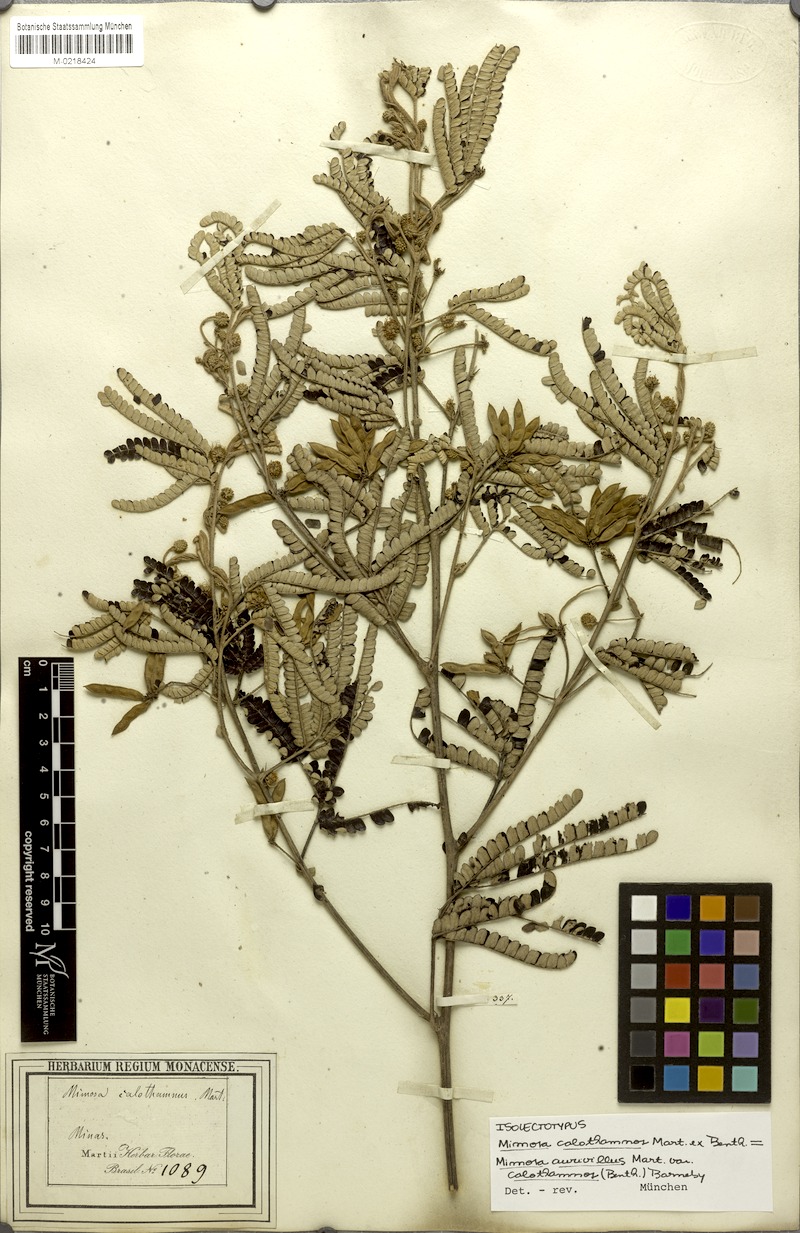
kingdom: Plantae
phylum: Tracheophyta
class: Magnoliopsida
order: Fabales
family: Fabaceae
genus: Mimosa
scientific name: Mimosa aurivillus
